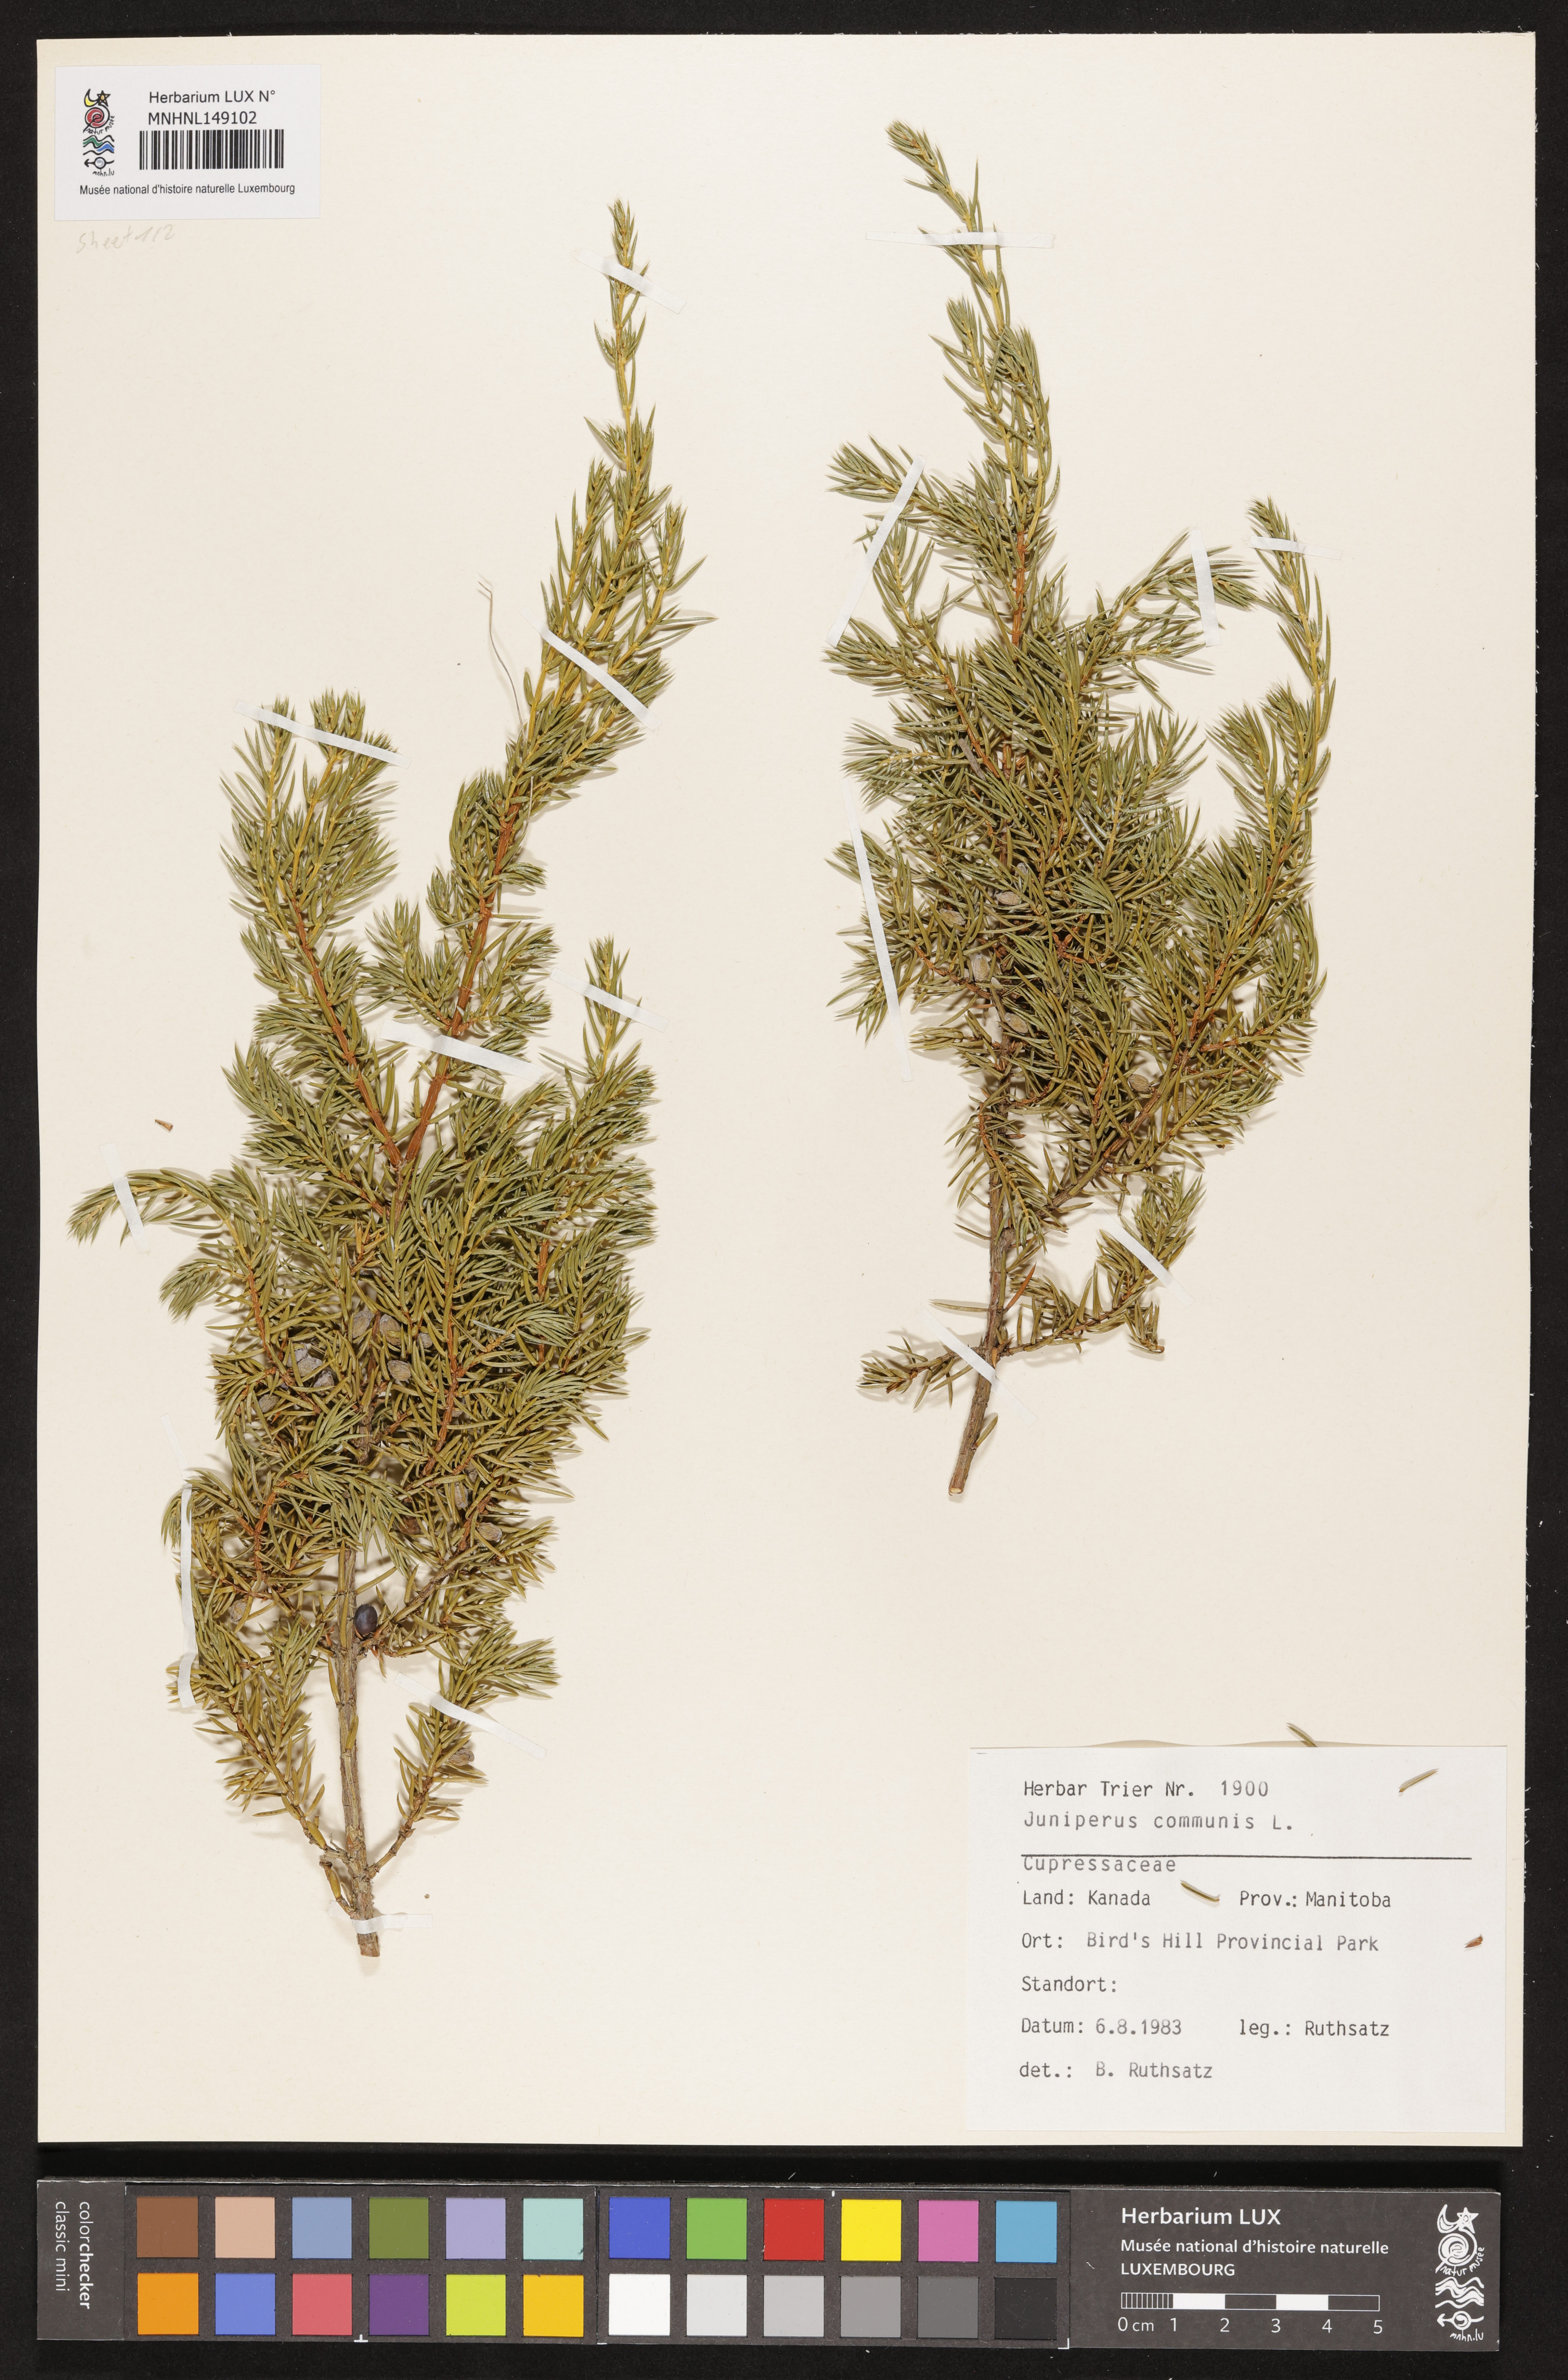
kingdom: Plantae
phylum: Tracheophyta
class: Pinopsida
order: Pinales
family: Cupressaceae
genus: Juniperus
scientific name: Juniperus communis
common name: Common juniper
